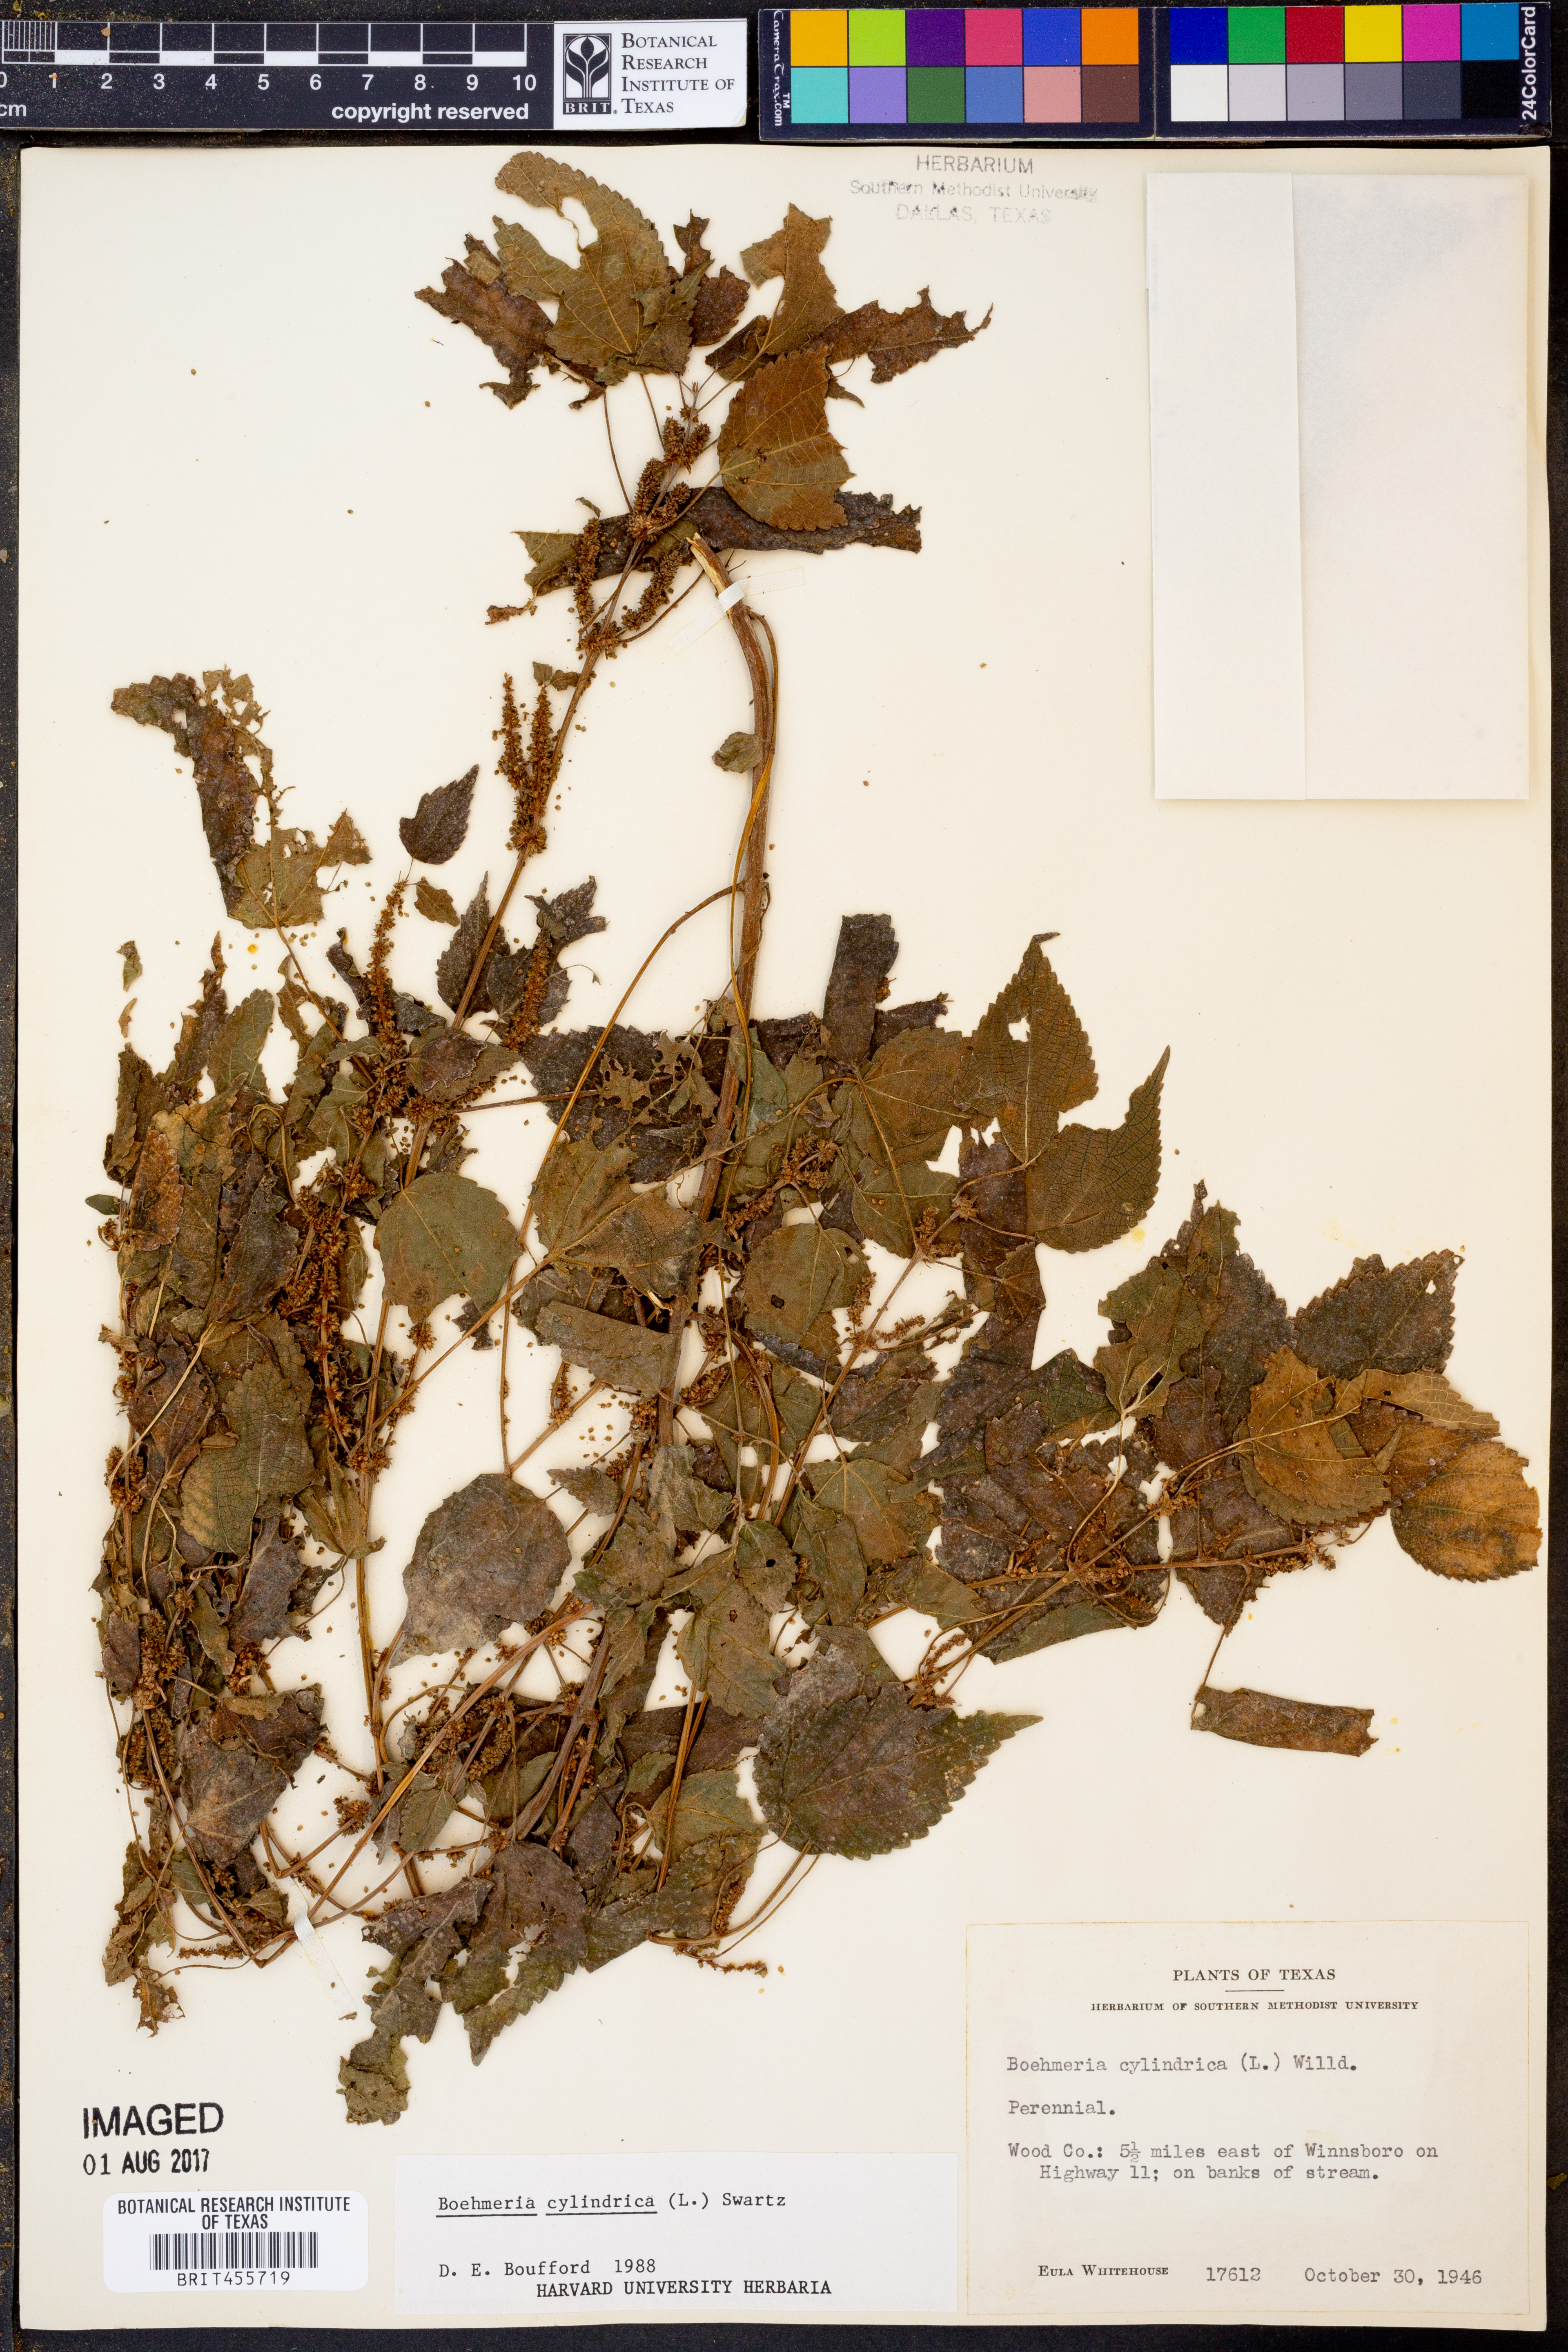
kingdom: Plantae
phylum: Tracheophyta
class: Magnoliopsida
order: Rosales
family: Urticaceae
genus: Boehmeria
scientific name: Boehmeria cylindrica
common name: Bog-hemp
